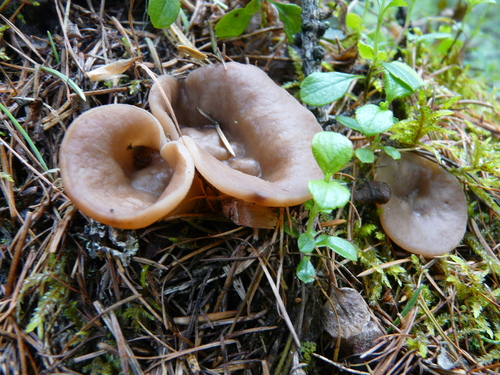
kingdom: Fungi
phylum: Ascomycota
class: Pezizomycetes
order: Pezizales
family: Discinaceae
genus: Discina
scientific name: Discina ancilis
